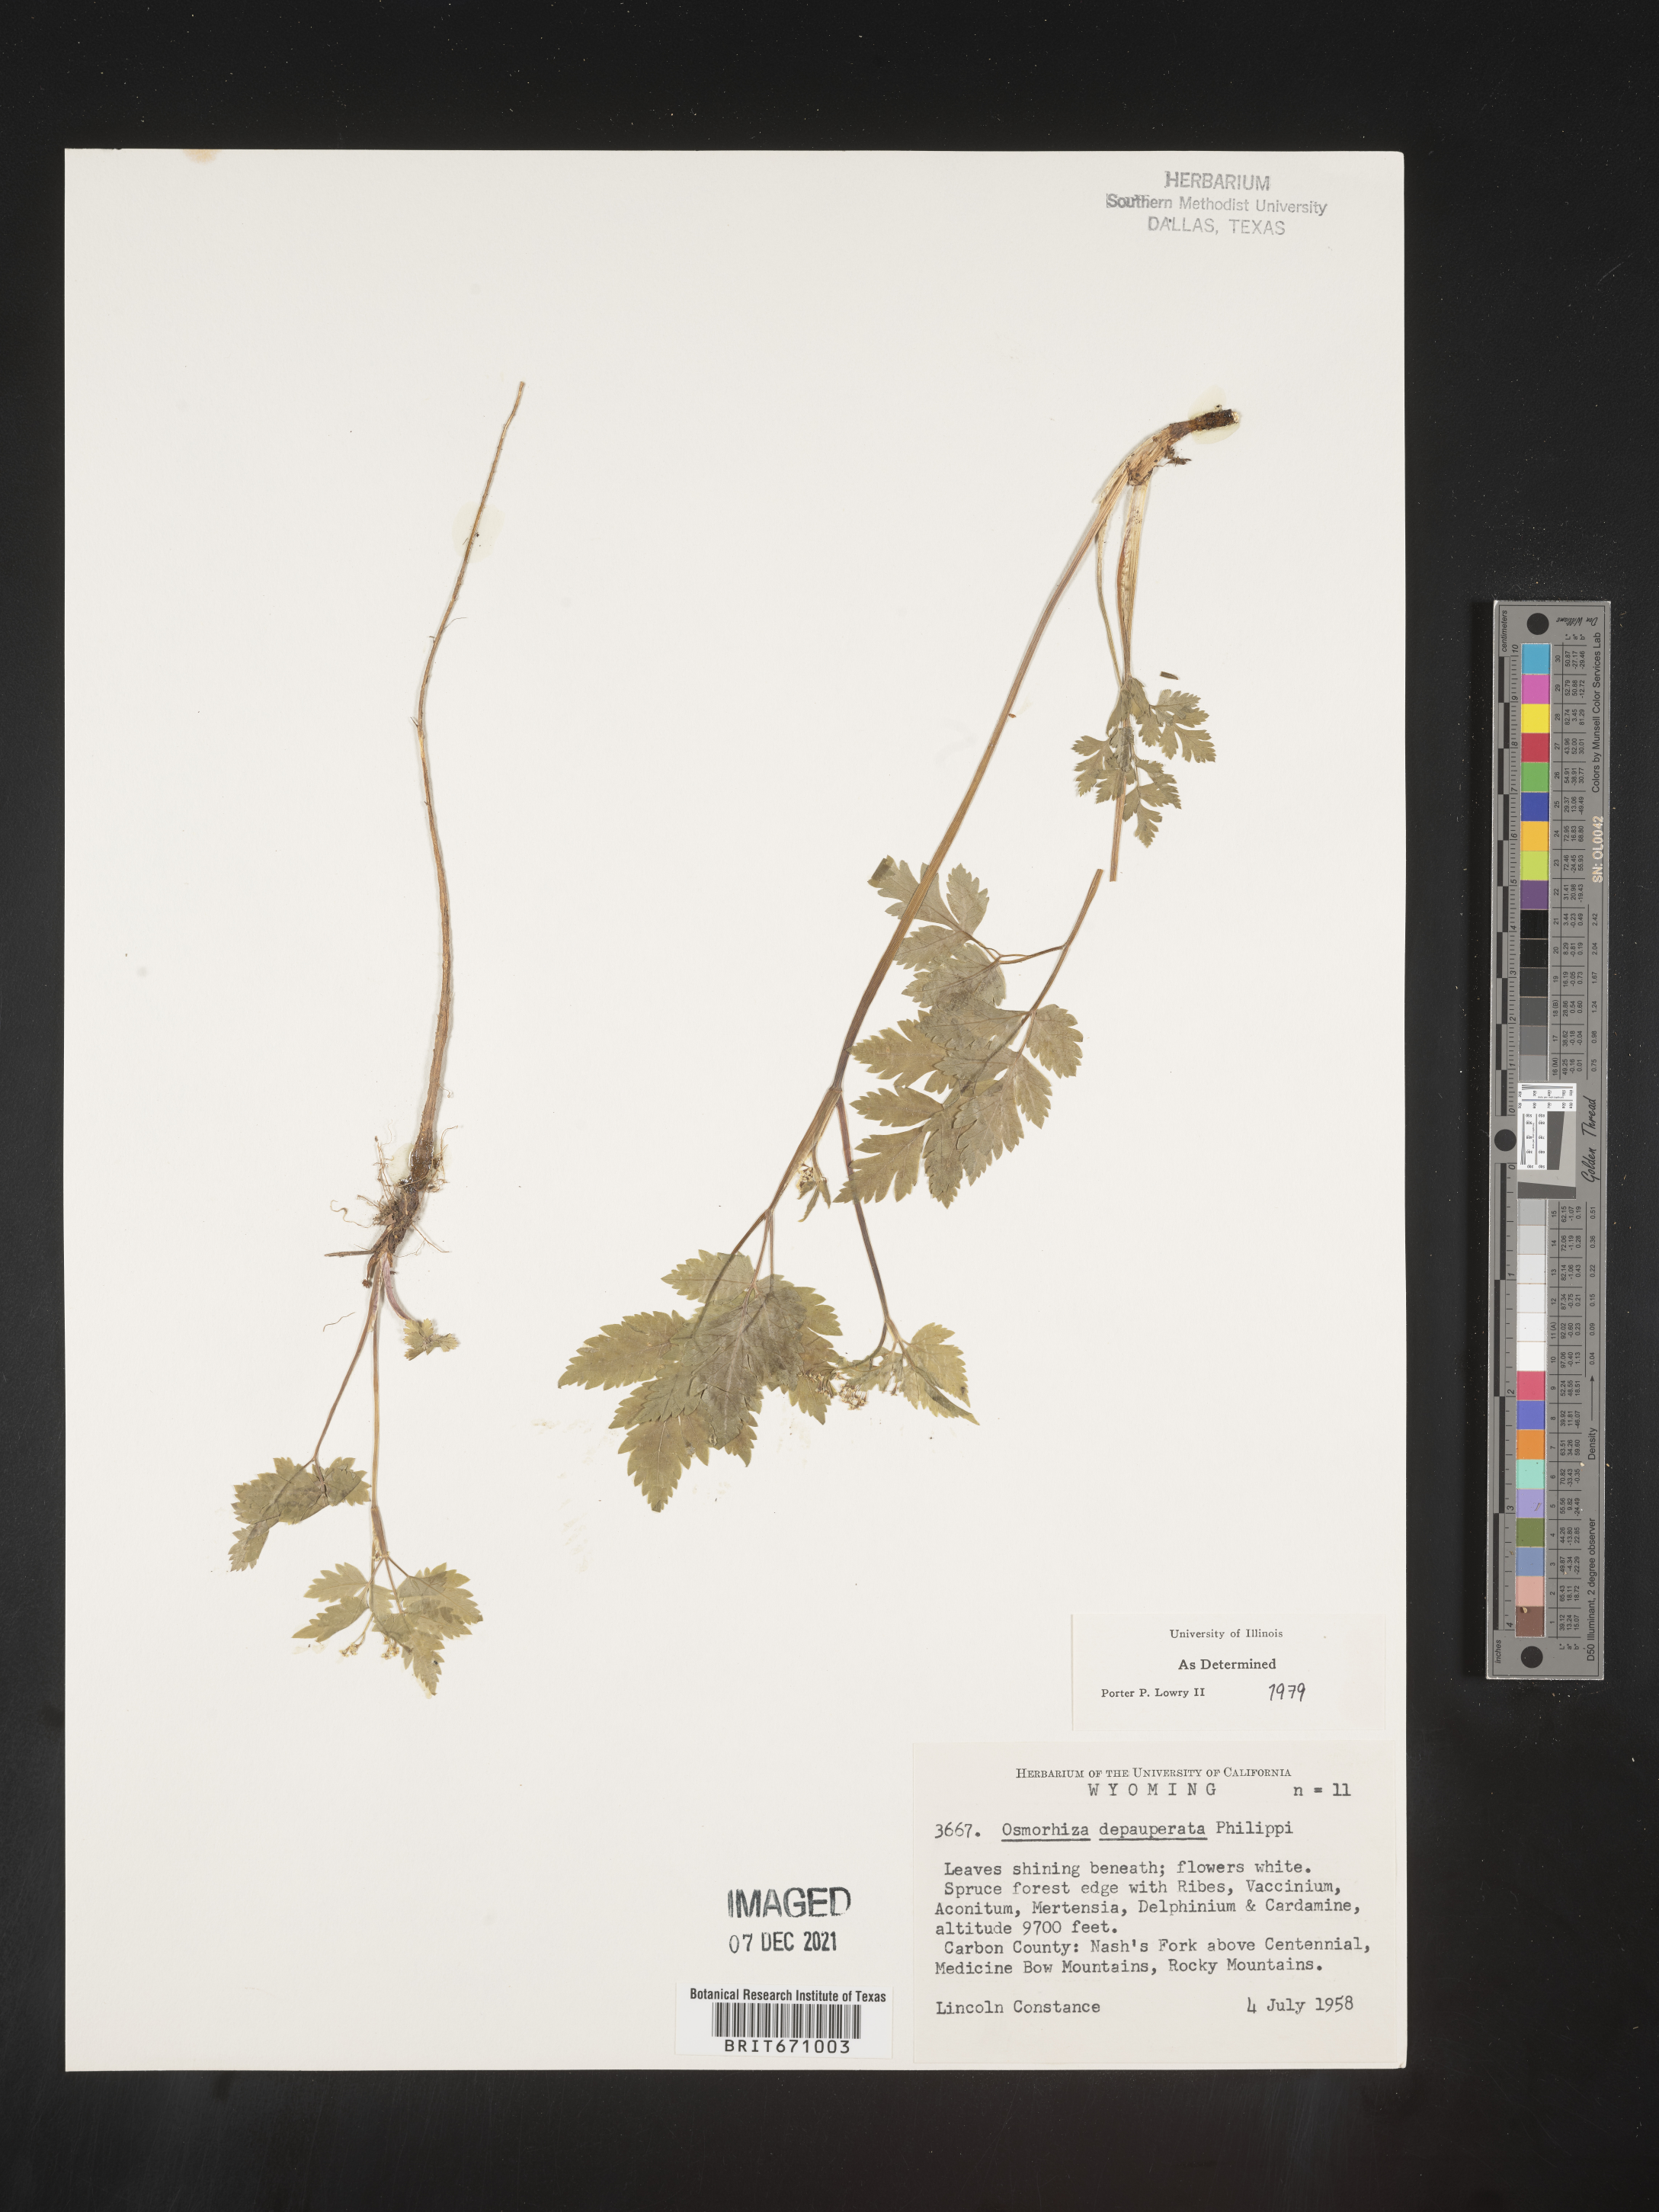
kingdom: Plantae
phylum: Tracheophyta
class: Magnoliopsida
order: Apiales
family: Apiaceae
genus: Osmorhiza
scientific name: Osmorhiza depauperata
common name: Blunt sweet cicely
